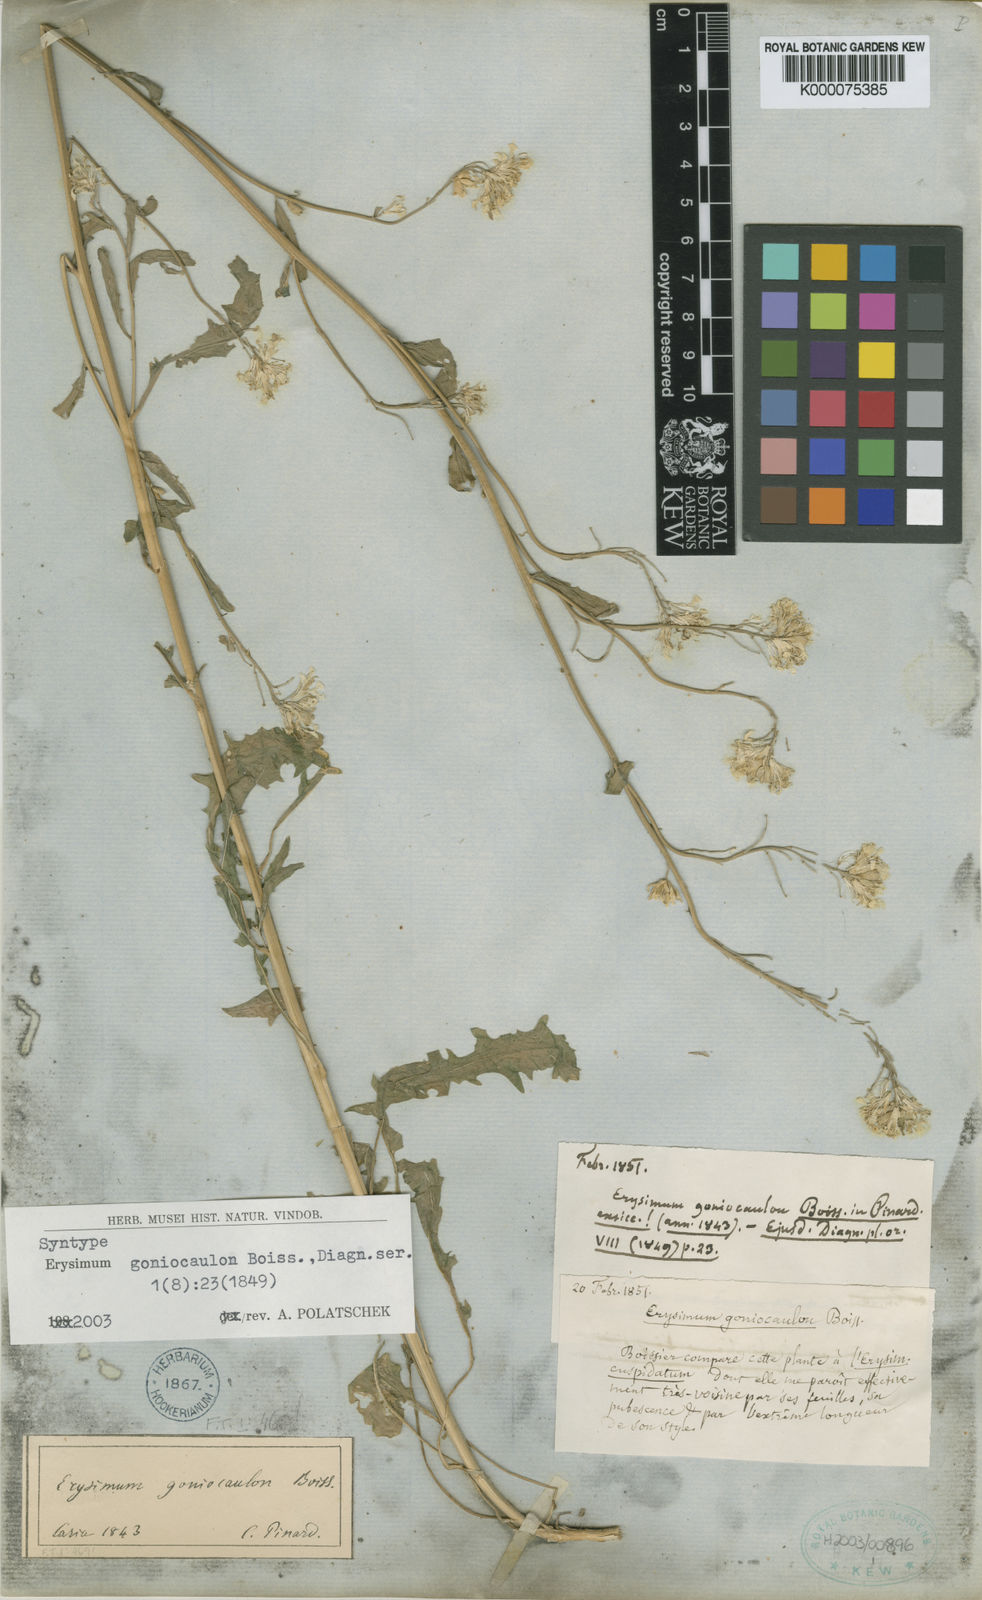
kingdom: Plantae
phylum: Tracheophyta
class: Magnoliopsida
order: Brassicales
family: Brassicaceae
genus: Erysimum
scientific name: Erysimum
